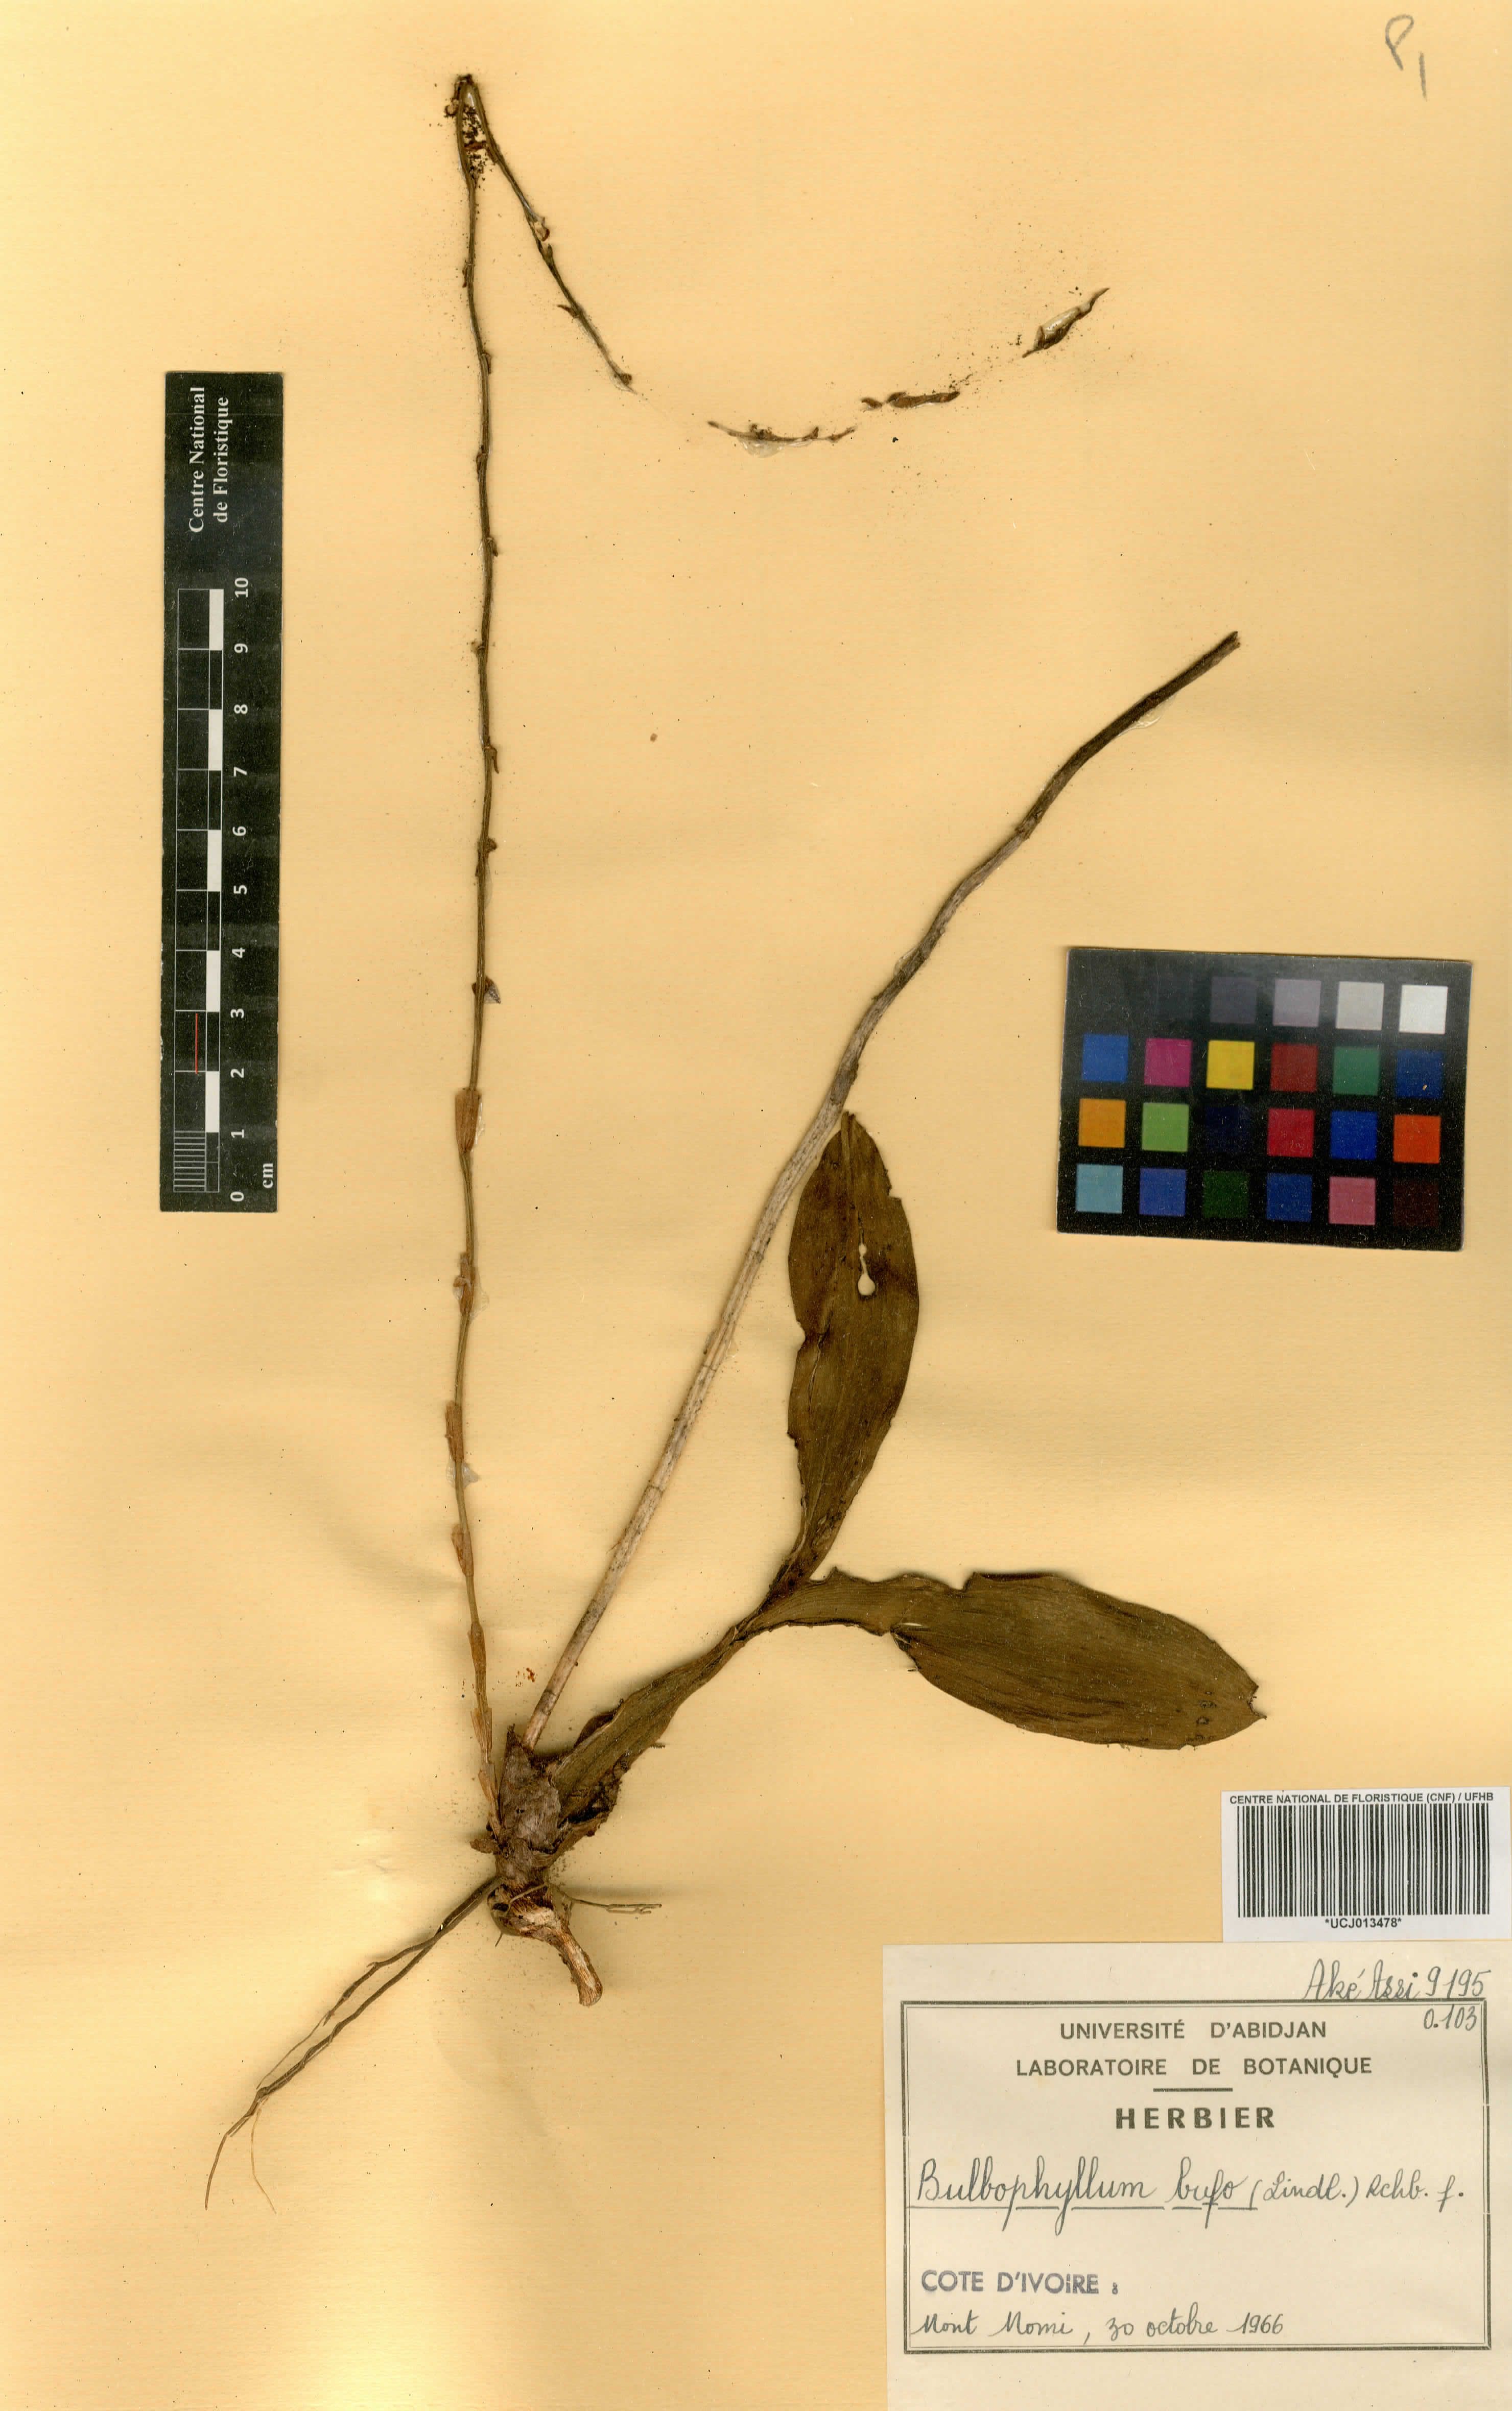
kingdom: Plantae
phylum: Tracheophyta
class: Liliopsida
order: Asparagales
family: Orchidaceae
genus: Bulbophyllum
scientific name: Bulbophyllum falcatum
